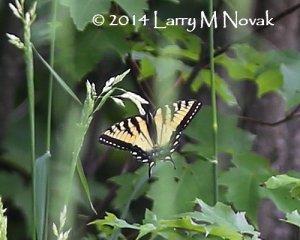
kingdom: Animalia
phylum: Arthropoda
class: Insecta
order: Lepidoptera
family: Papilionidae
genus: Pterourus
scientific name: Pterourus canadensis
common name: Canadian Tiger Swallowtail
